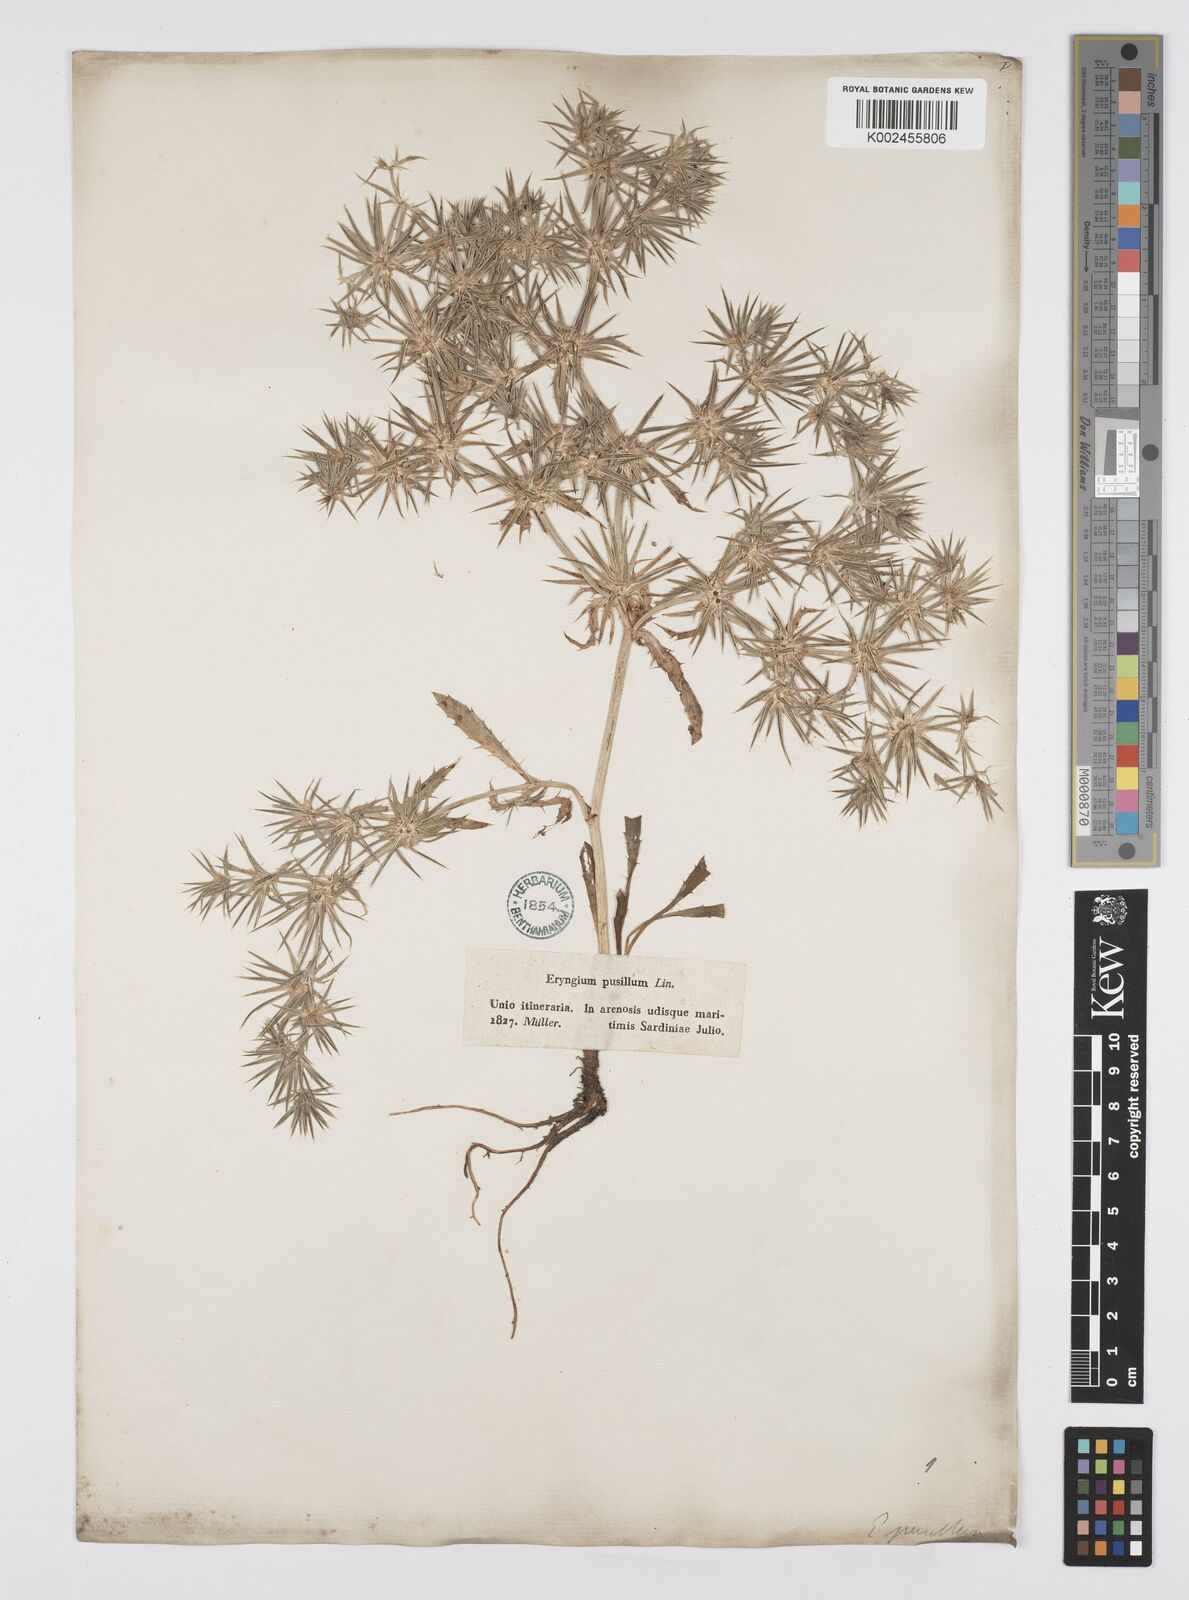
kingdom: Plantae
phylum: Tracheophyta
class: Magnoliopsida
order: Apiales
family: Apiaceae
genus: Eryngium
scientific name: Eryngium pusillum
